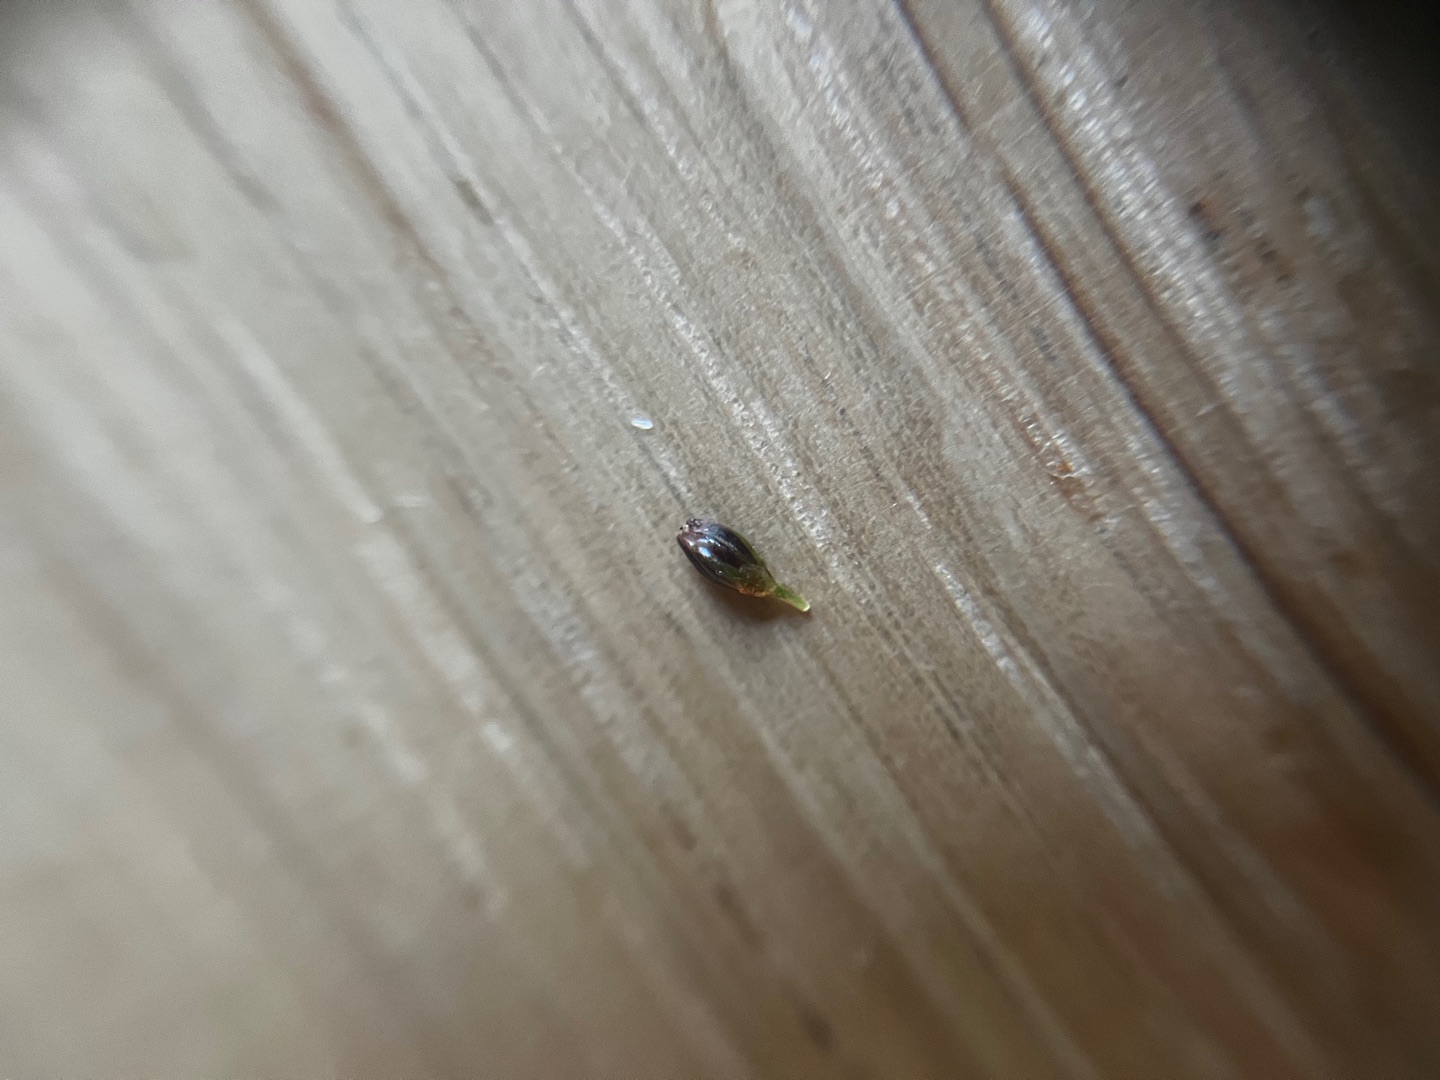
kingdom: Plantae
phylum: Tracheophyta
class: Liliopsida
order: Poales
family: Juncaceae
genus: Juncus
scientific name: Juncus gerardi
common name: Harril
